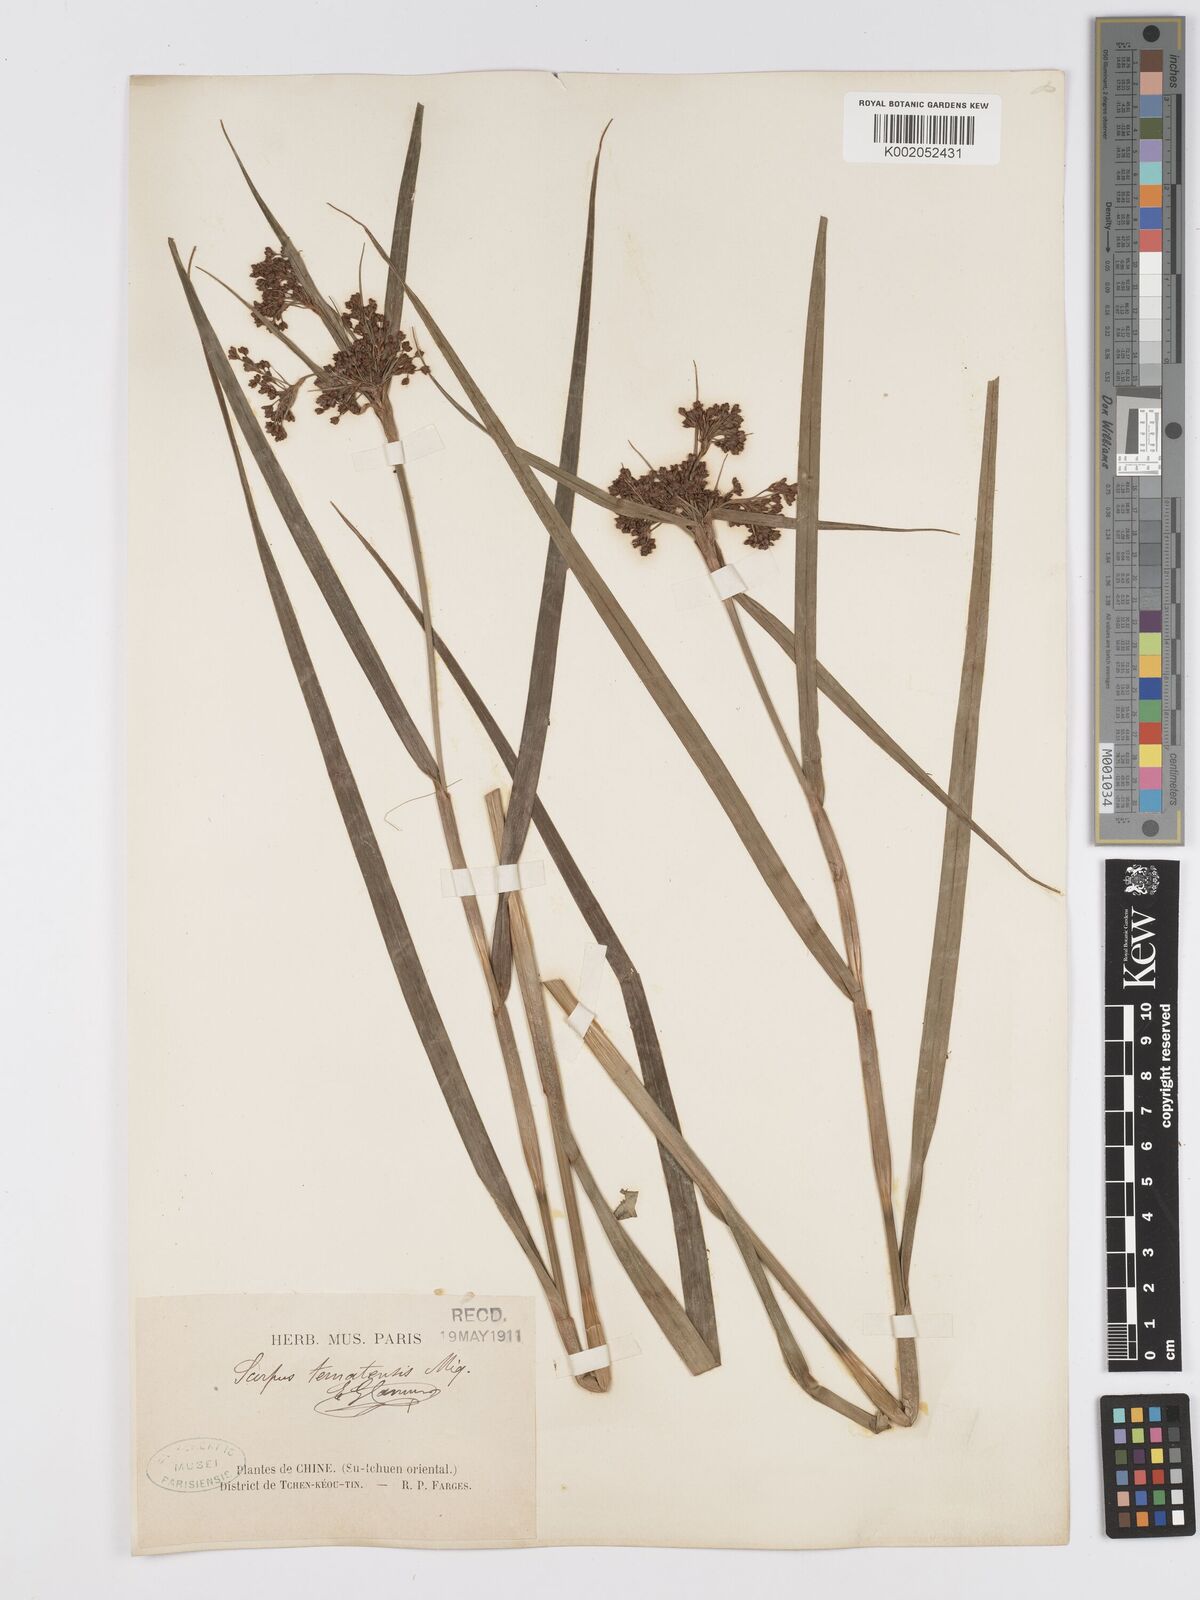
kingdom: Plantae
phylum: Tracheophyta
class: Liliopsida
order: Poales
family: Cyperaceae
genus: Scirpus
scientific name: Scirpus ternatanus
